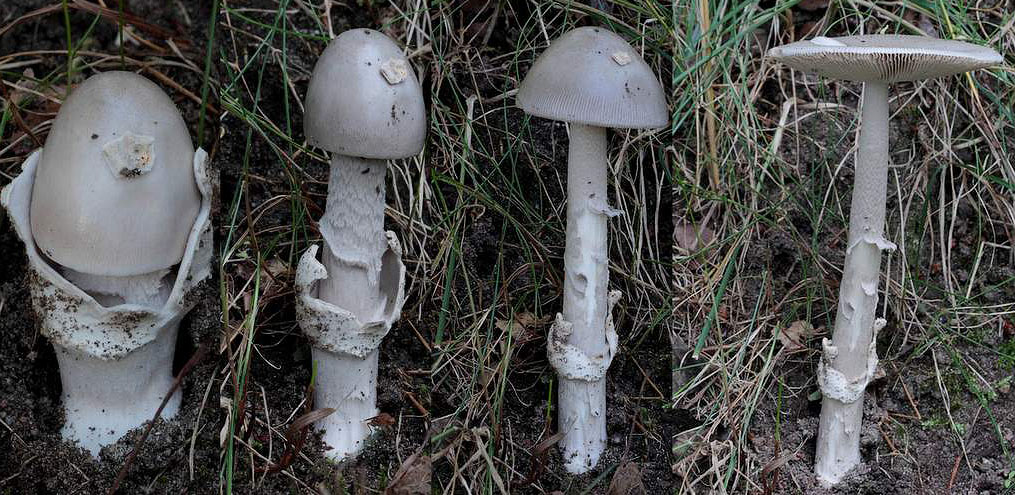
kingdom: Fungi
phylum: Basidiomycota
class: Agaricomycetes
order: Agaricales
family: Amanitaceae
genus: Amanita
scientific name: Amanita simulans
